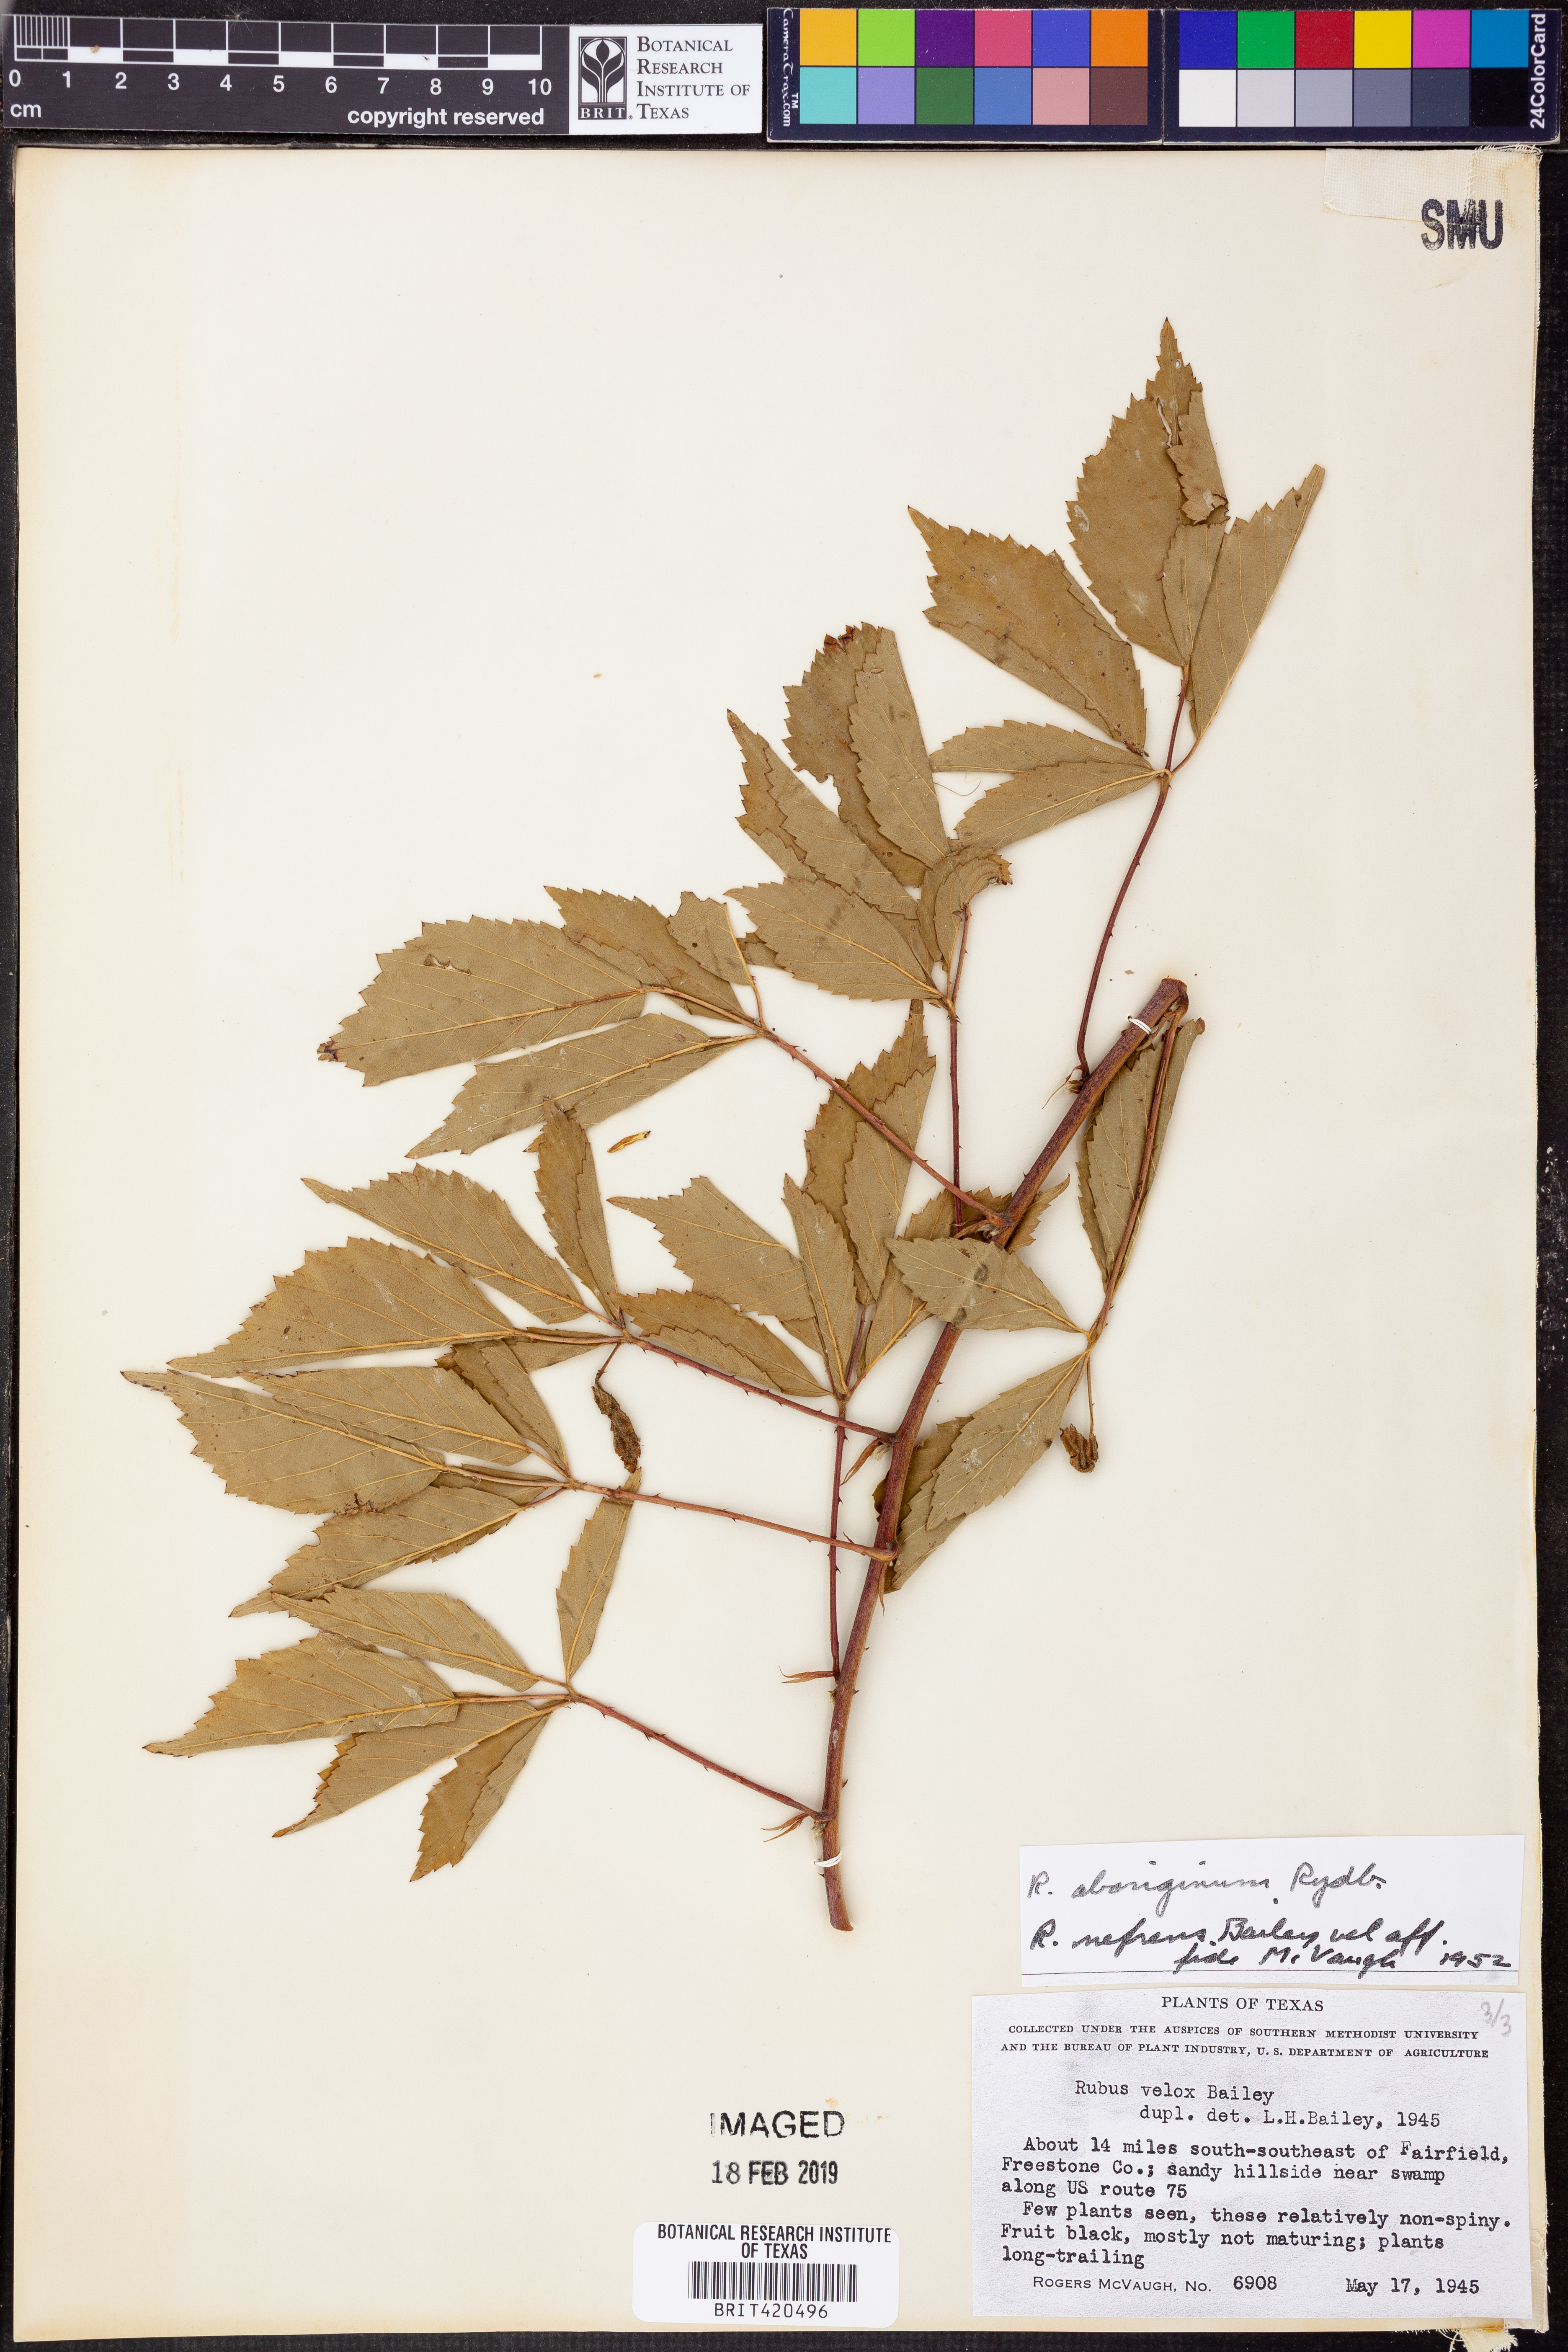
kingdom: Plantae
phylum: Tracheophyta
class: Magnoliopsida
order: Rosales
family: Rosaceae
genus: Rubus
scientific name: Rubus velox
